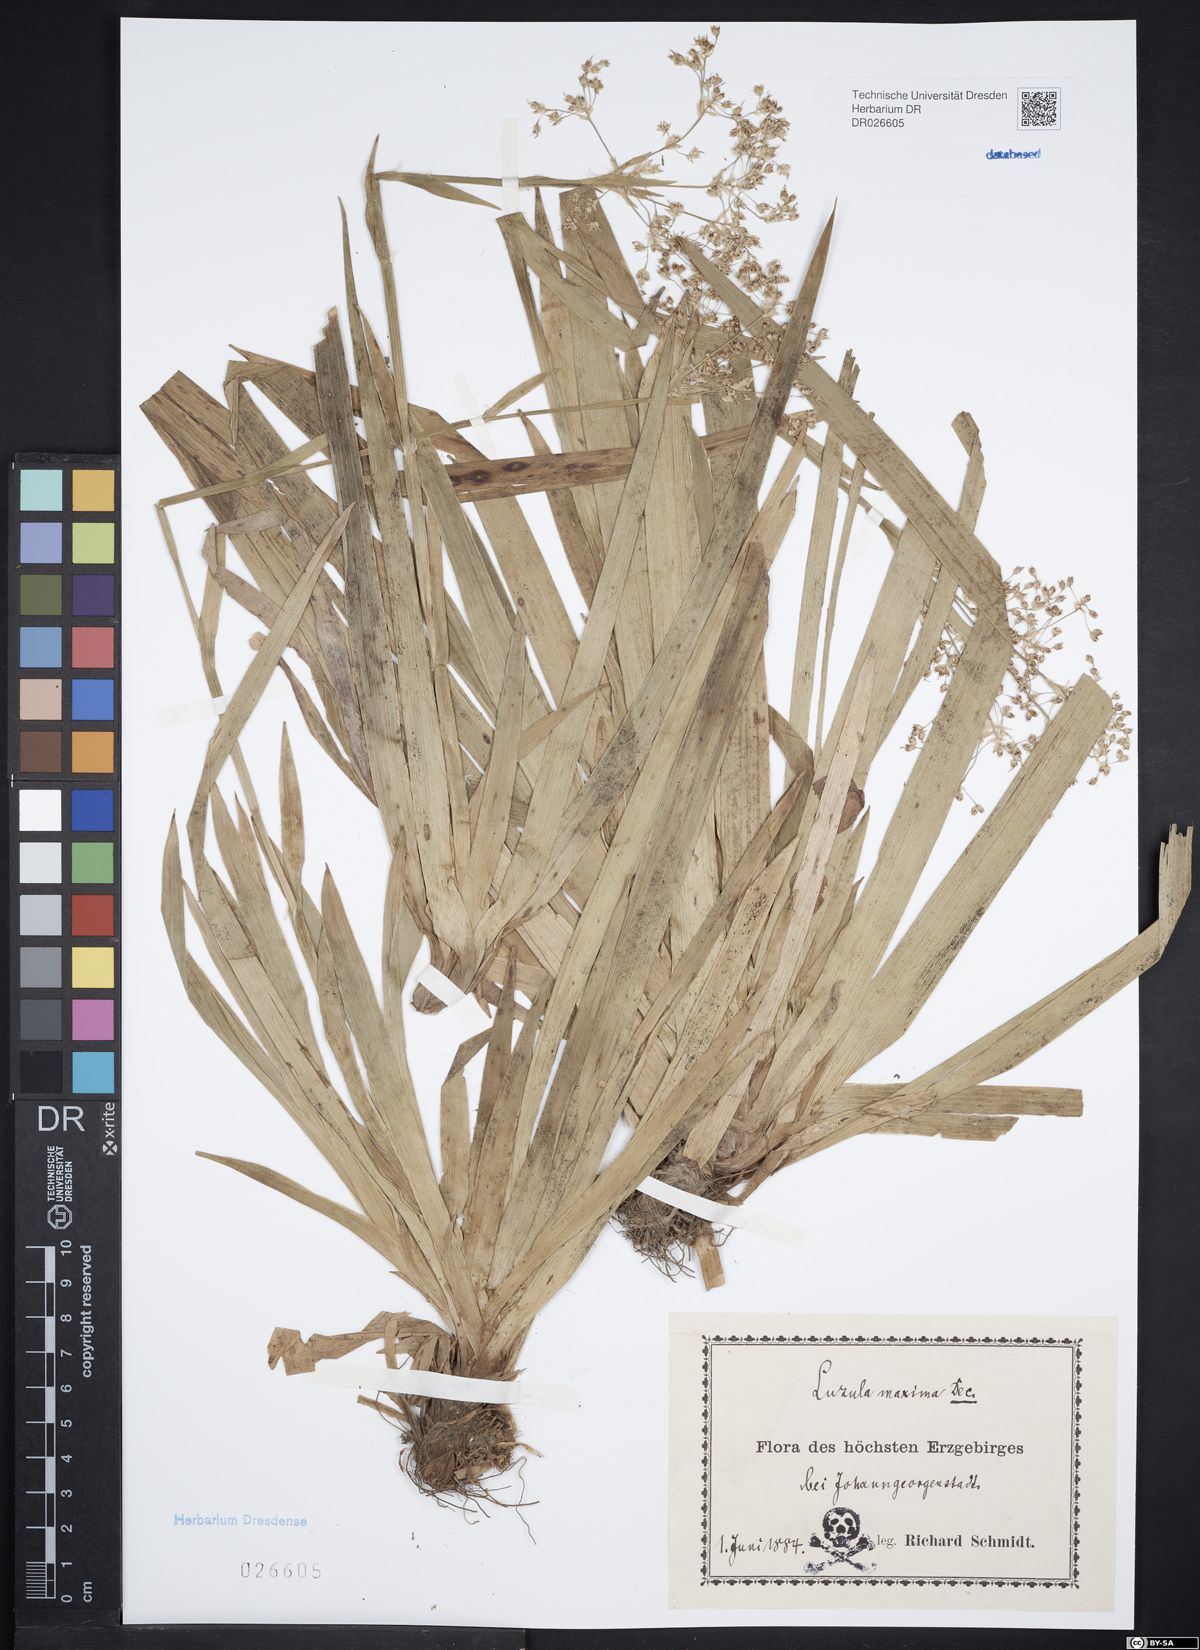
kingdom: Plantae
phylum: Tracheophyta
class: Liliopsida
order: Poales
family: Juncaceae
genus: Luzula
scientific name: Luzula sylvatica
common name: Great wood-rush
